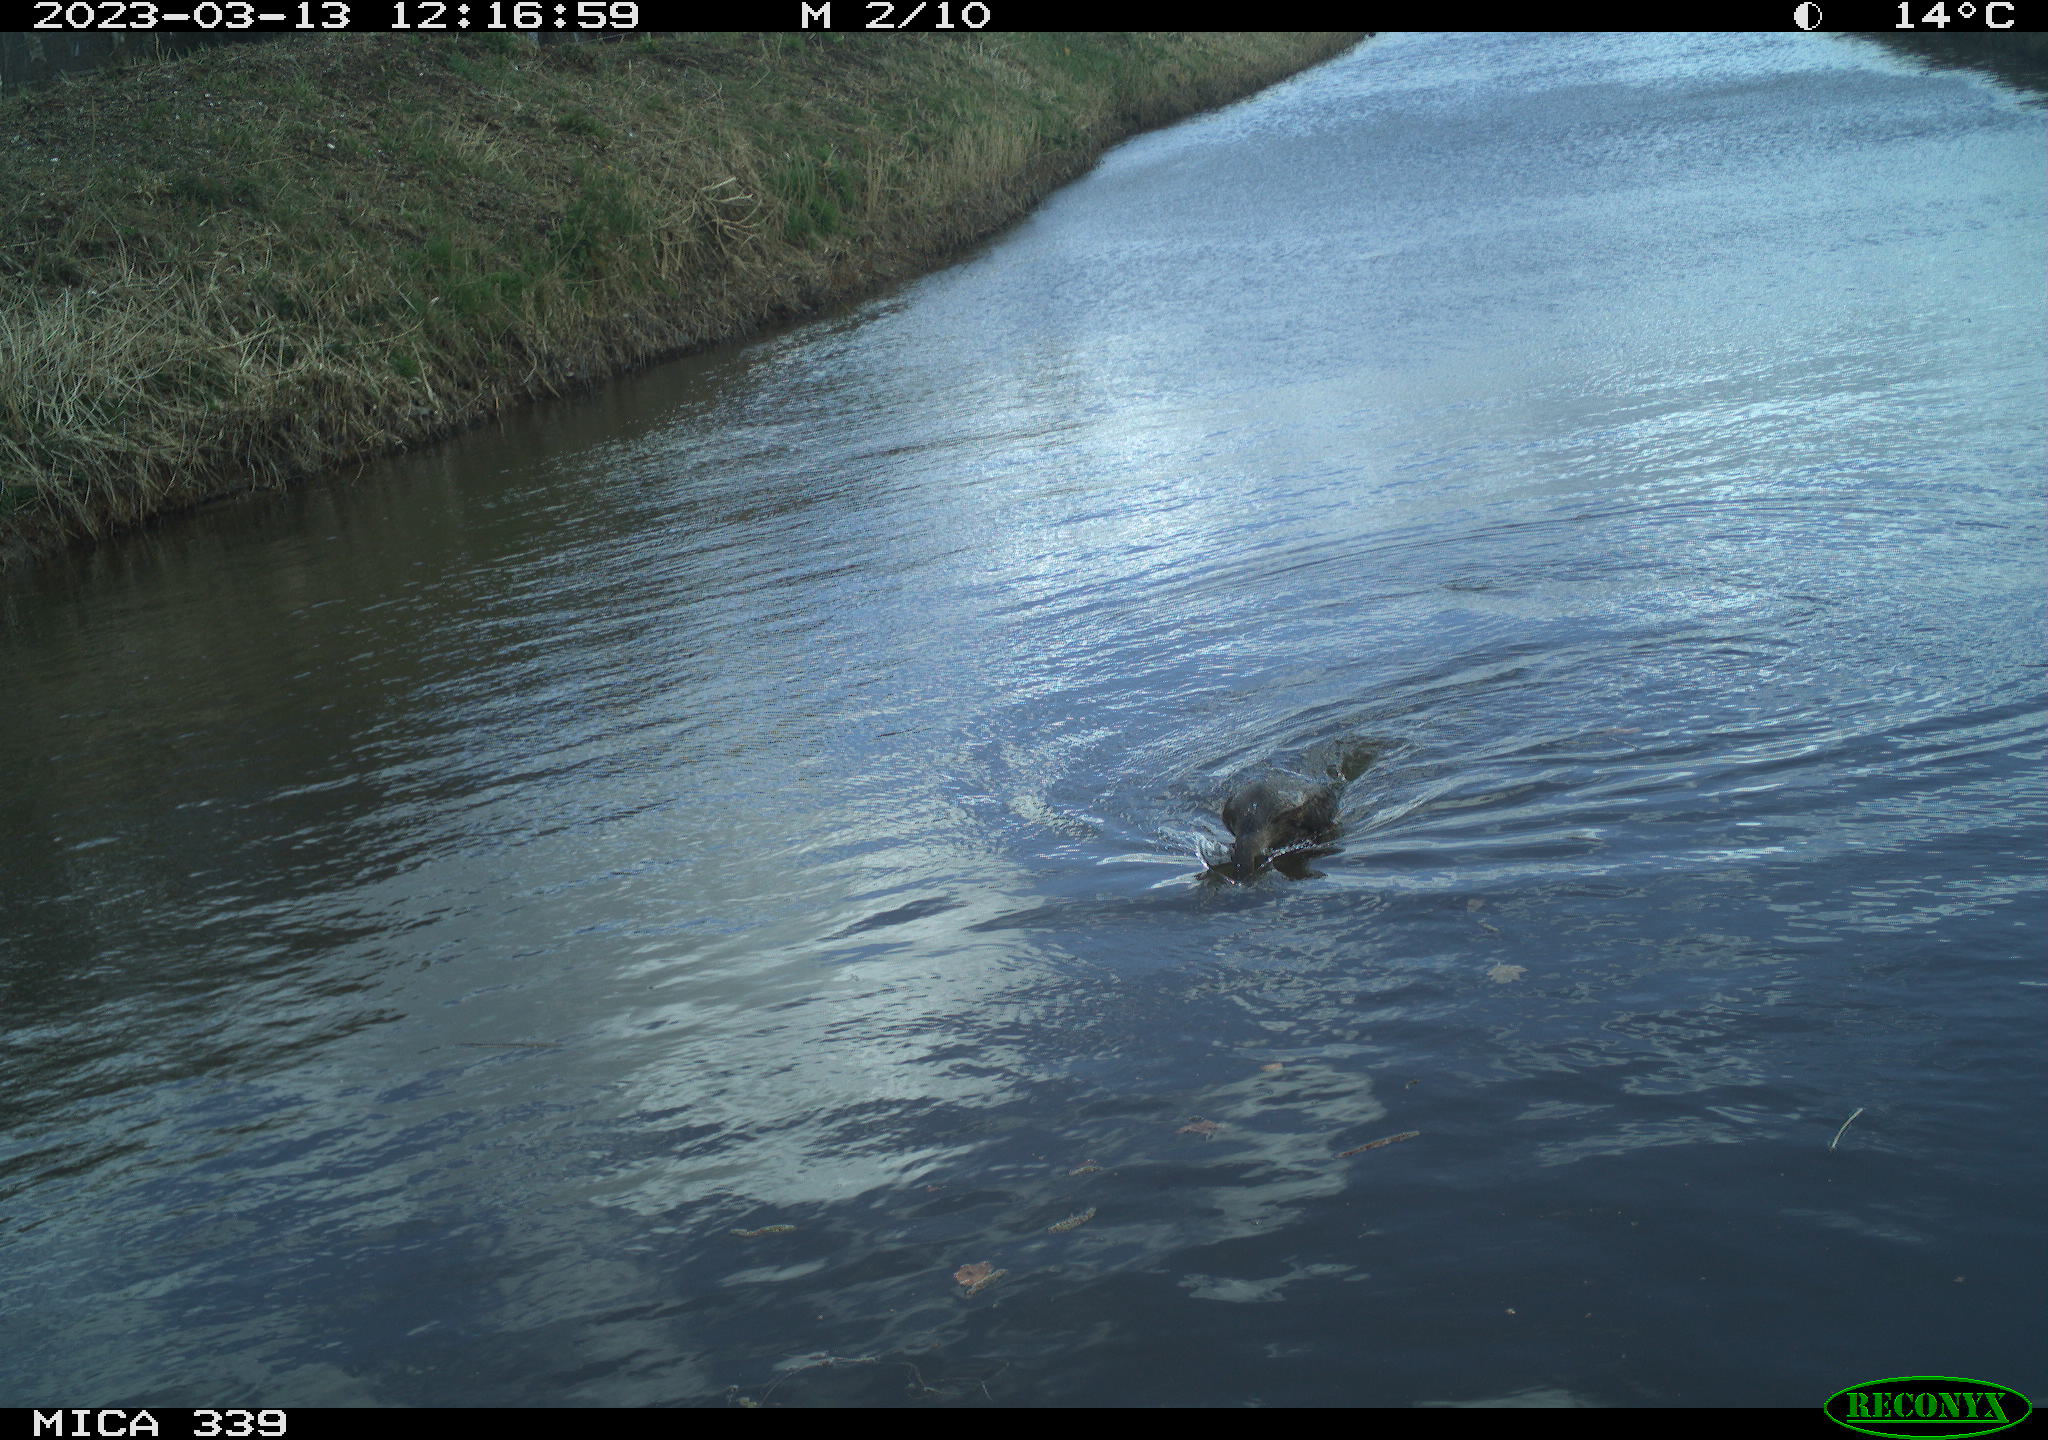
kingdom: Animalia
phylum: Chordata
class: Aves
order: Suliformes
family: Phalacrocoracidae
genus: Phalacrocorax
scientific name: Phalacrocorax carbo
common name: Great cormorant
